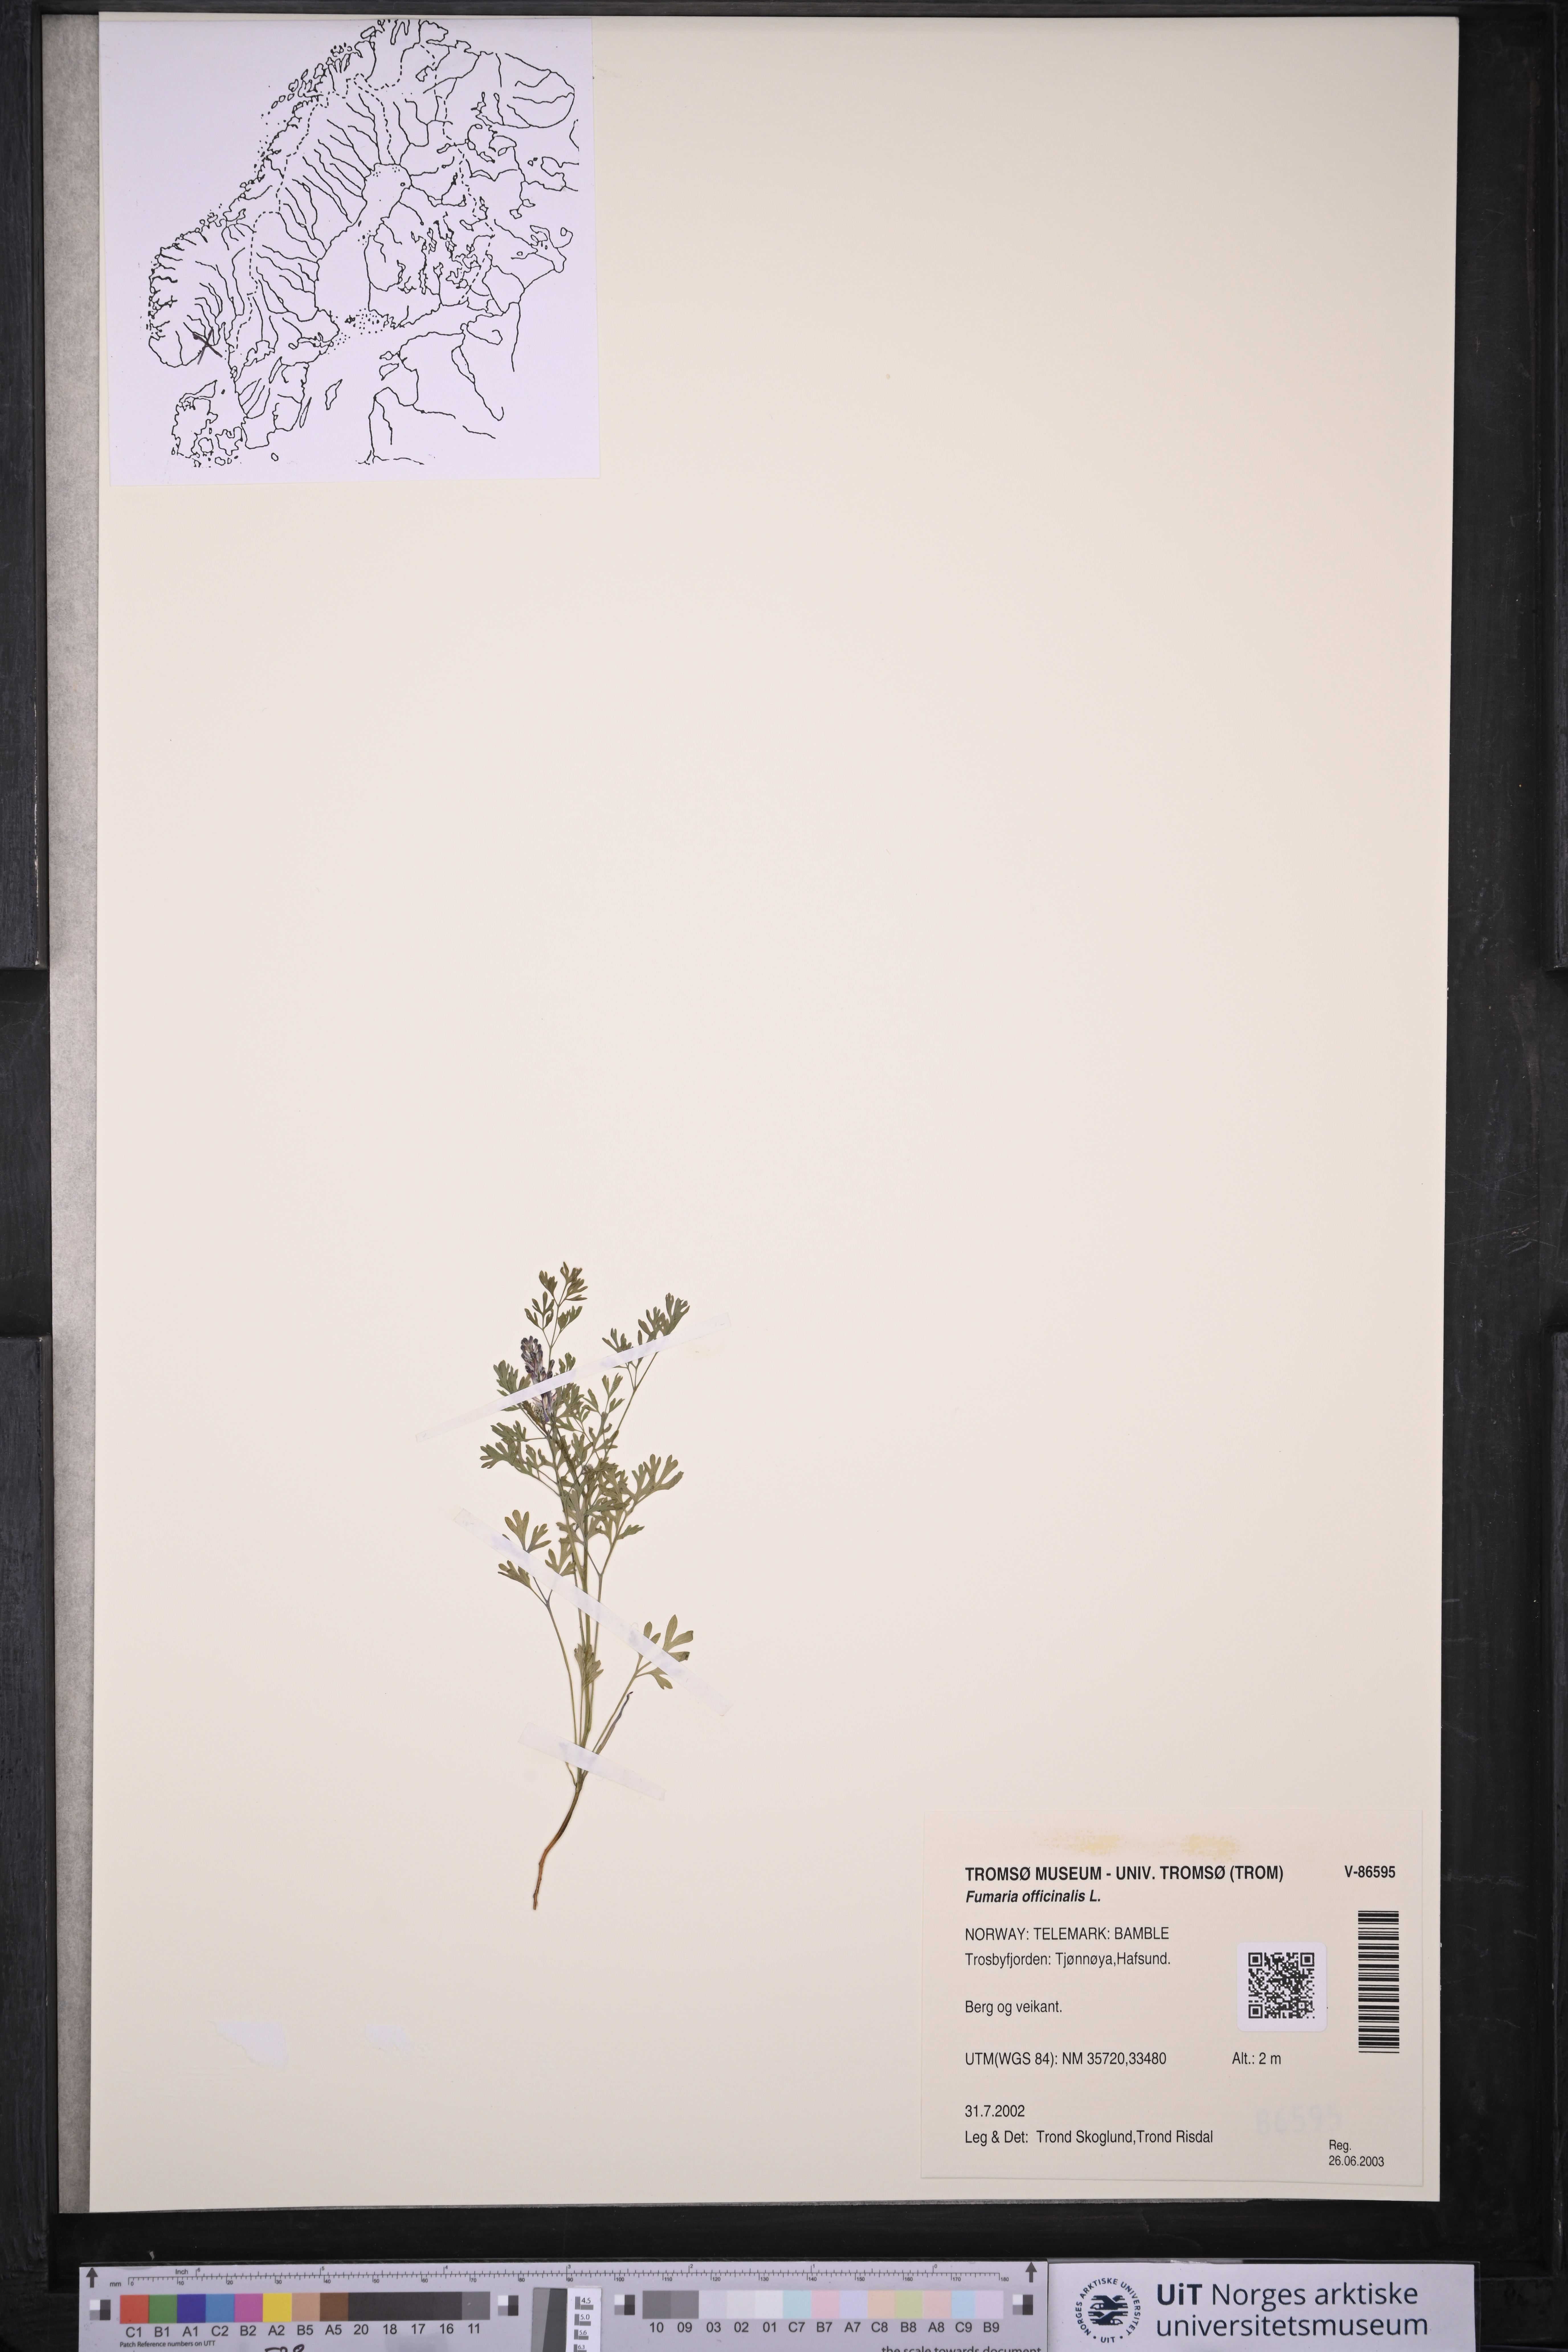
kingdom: Plantae
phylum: Tracheophyta
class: Magnoliopsida
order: Ranunculales
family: Papaveraceae
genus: Fumaria
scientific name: Fumaria officinalis
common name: Common fumitory
